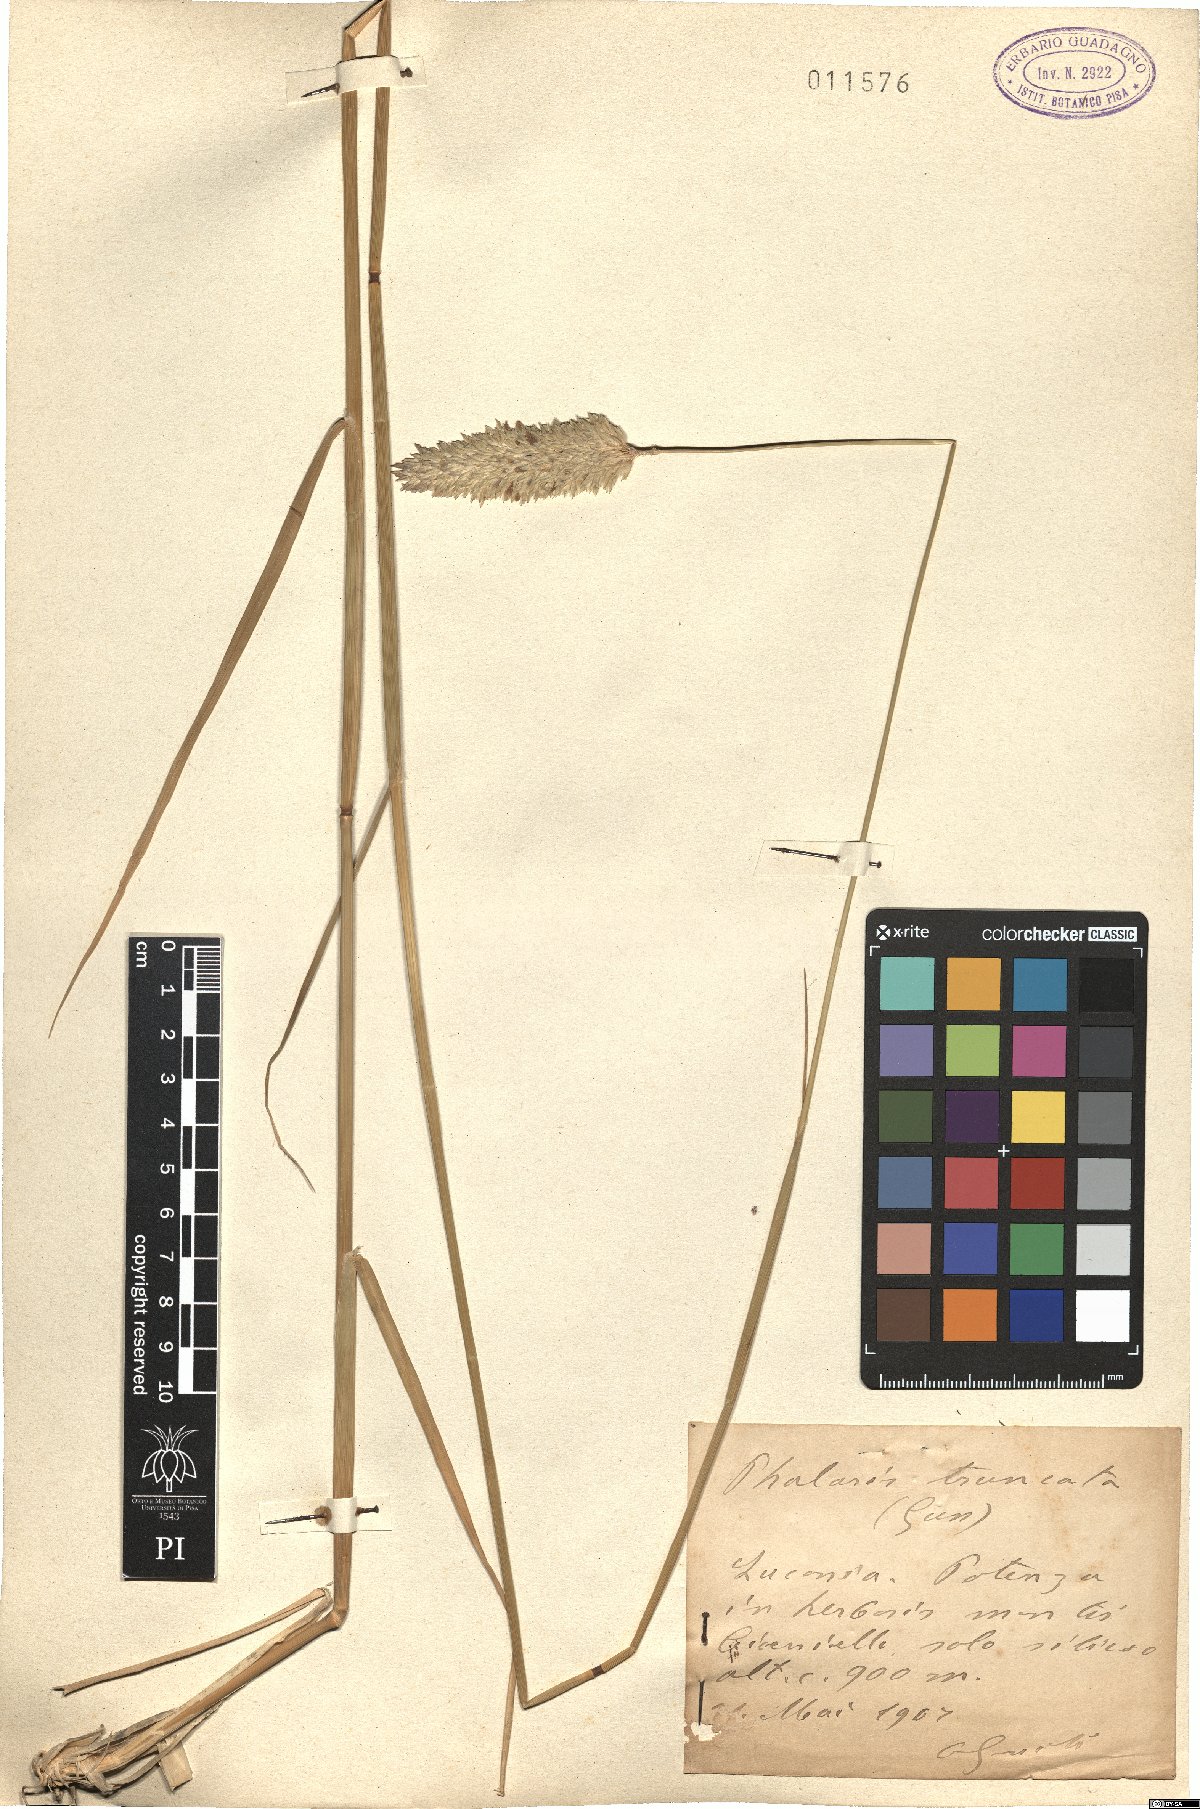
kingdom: Plantae
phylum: Tracheophyta
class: Liliopsida
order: Poales
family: Poaceae
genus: Phalaris
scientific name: Phalaris truncata
